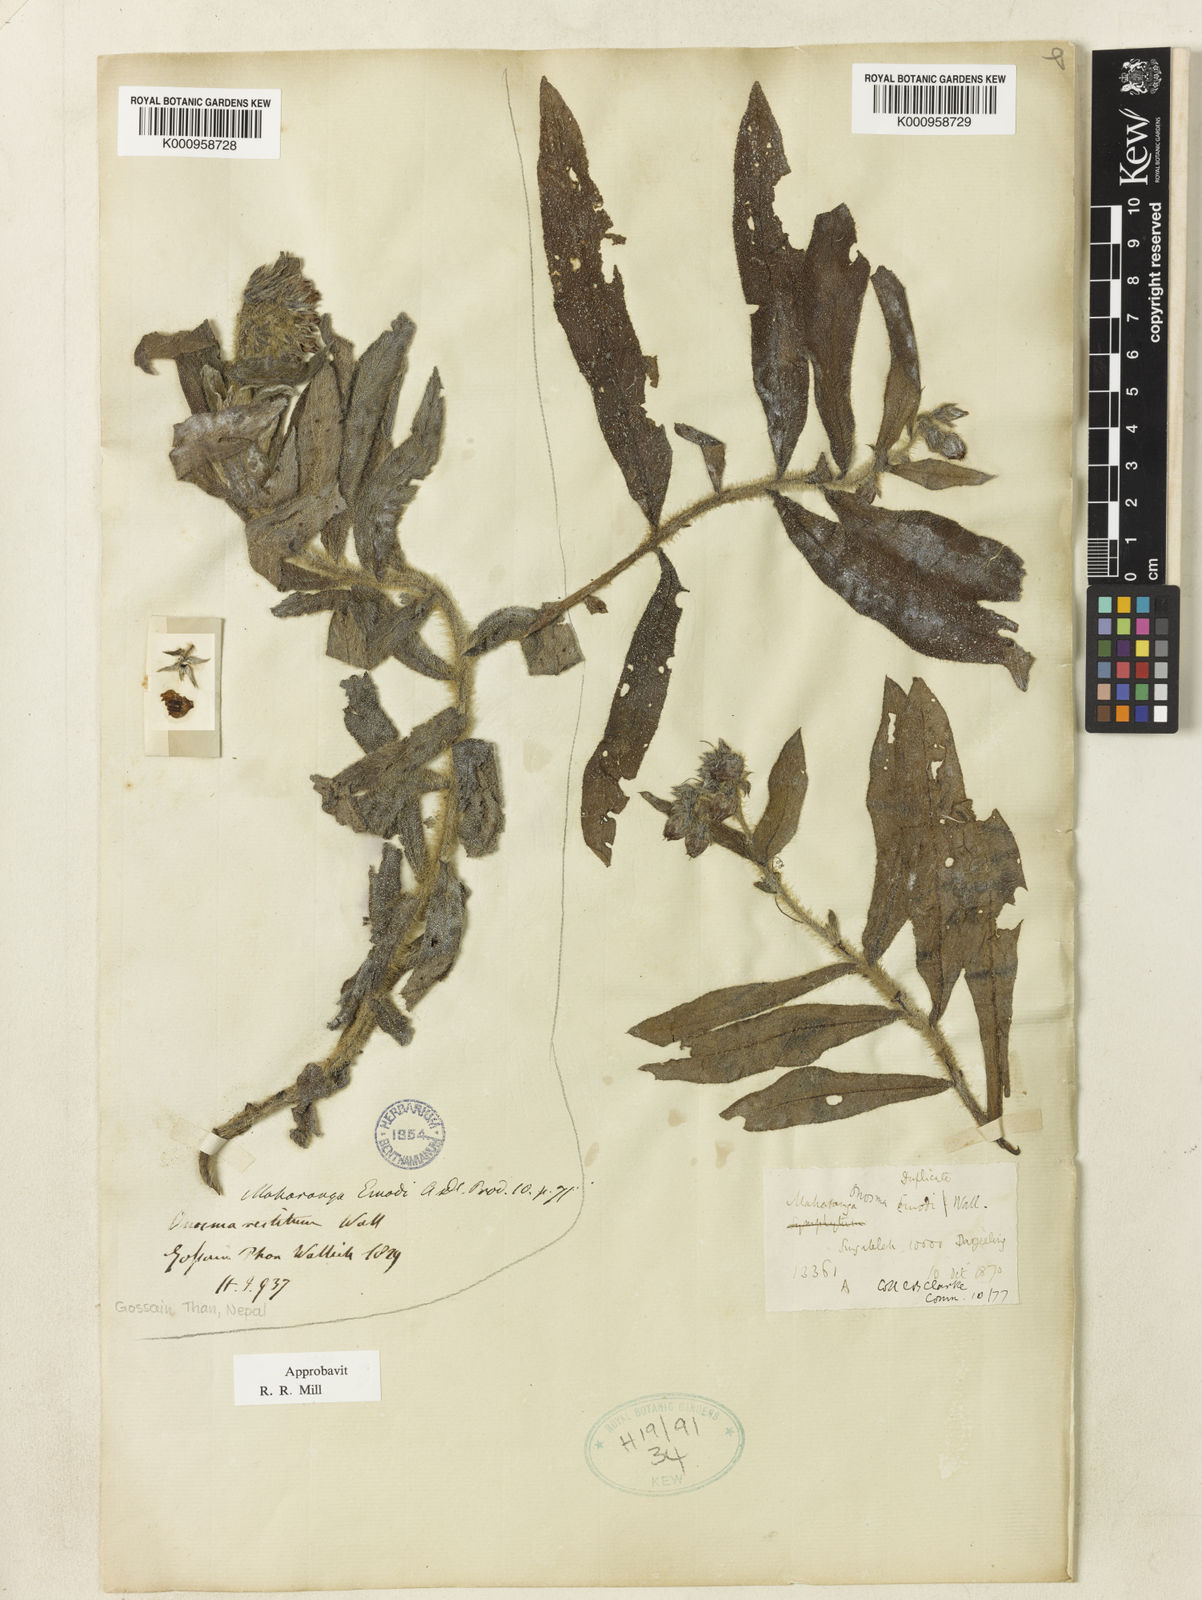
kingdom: Plantae
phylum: Tracheophyta
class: Magnoliopsida
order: Boraginales
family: Boraginaceae
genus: Onosma
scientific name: Onosma echioides
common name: Goldendrop
